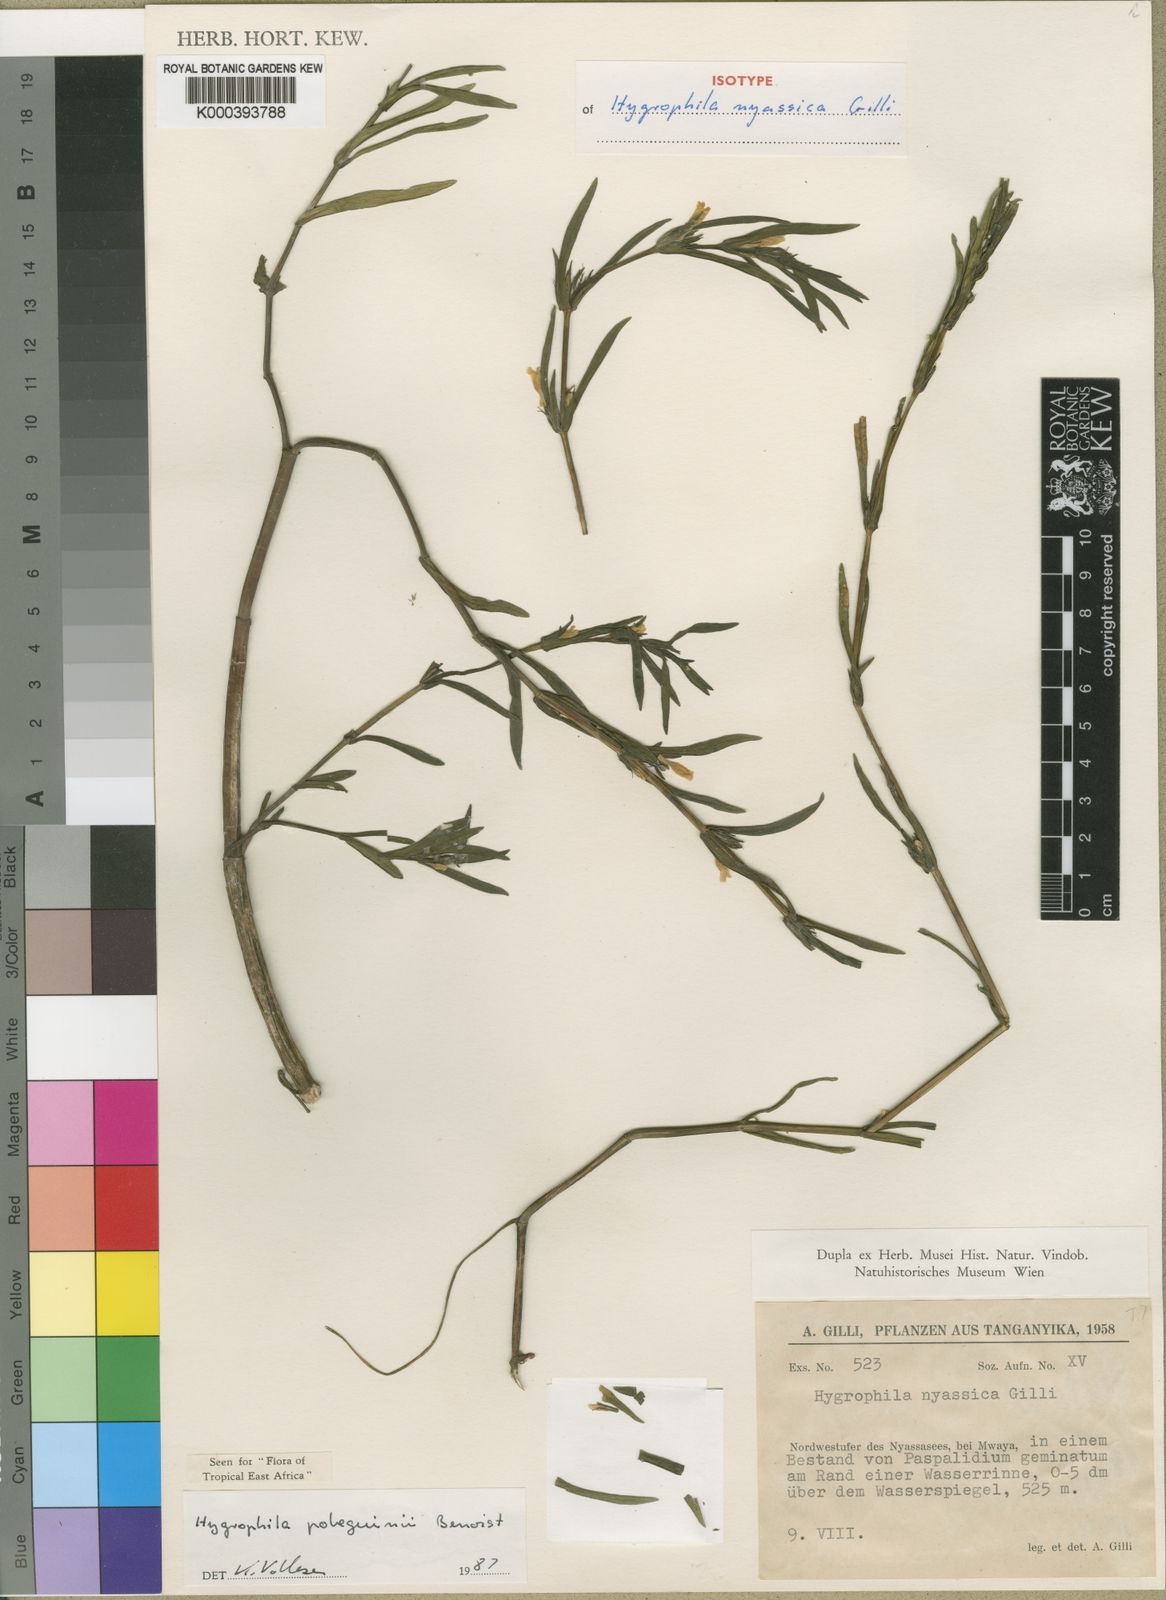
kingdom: Plantae
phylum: Tracheophyta
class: Magnoliopsida
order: Lamiales
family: Acanthaceae
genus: Hygrophila
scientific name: Hygrophila pobeguinii
